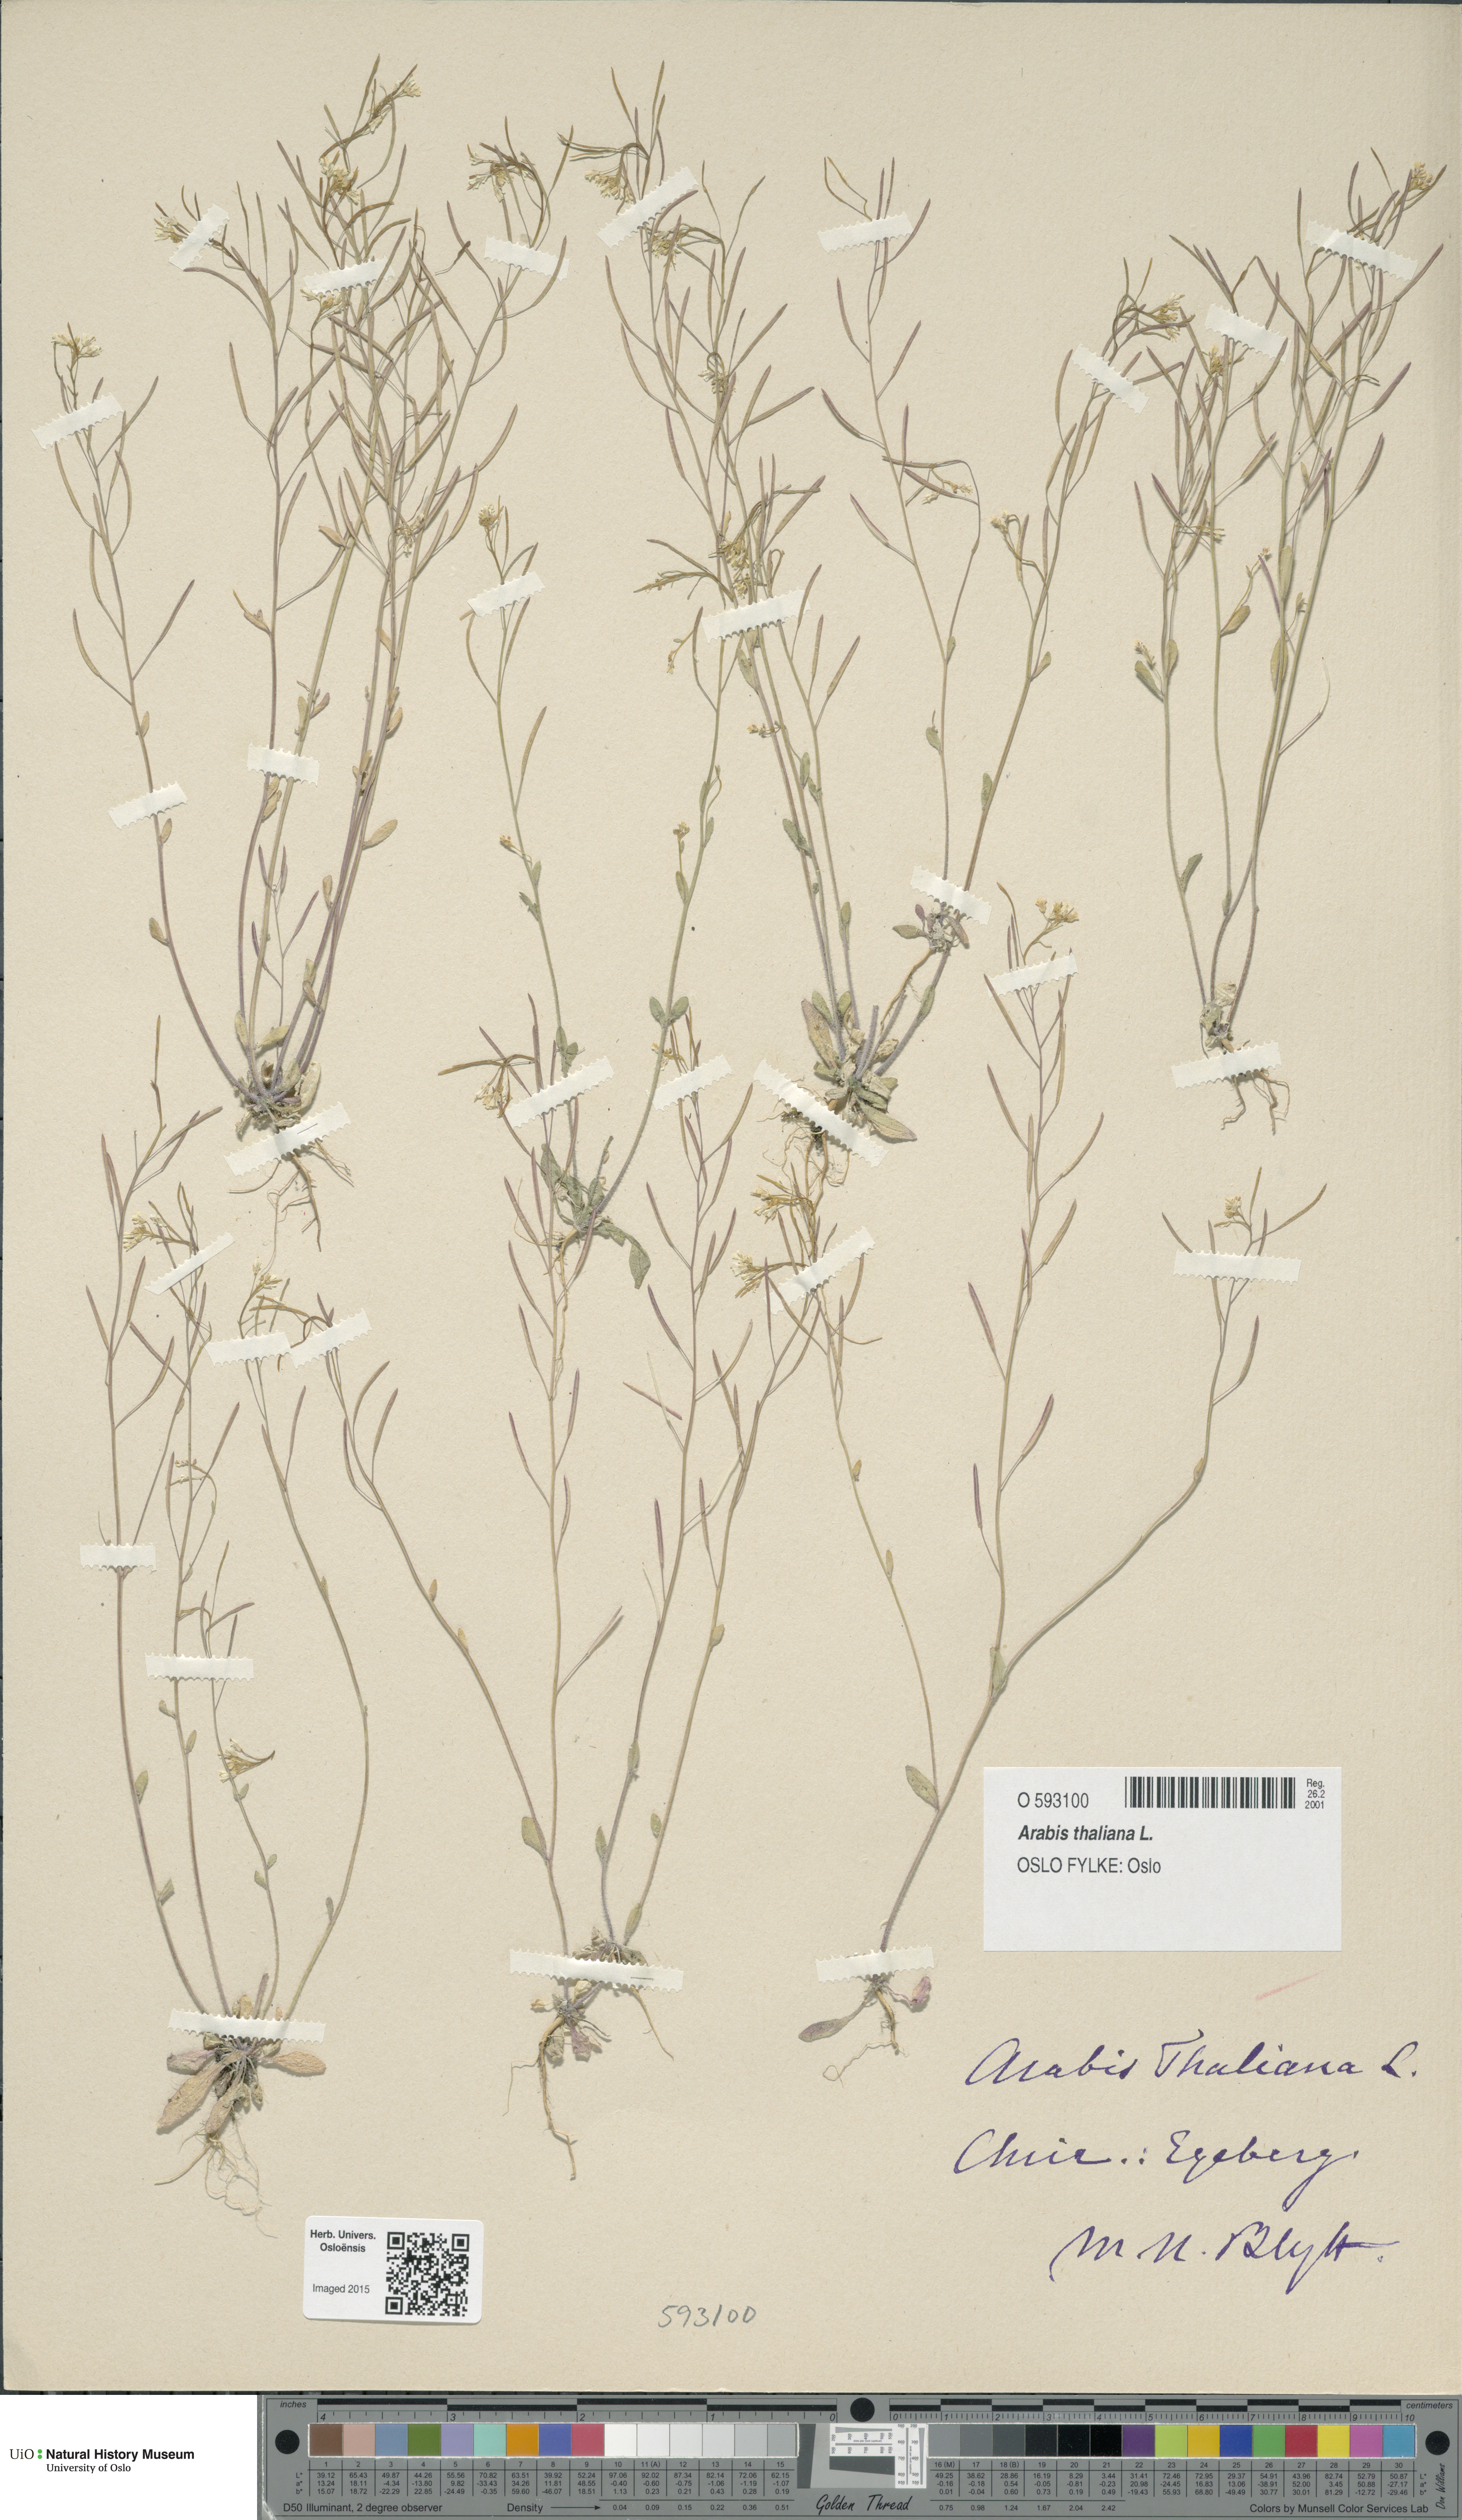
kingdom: Plantae
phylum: Tracheophyta
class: Magnoliopsida
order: Brassicales
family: Brassicaceae
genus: Arabidopsis
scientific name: Arabidopsis thaliana
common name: Thale cress
